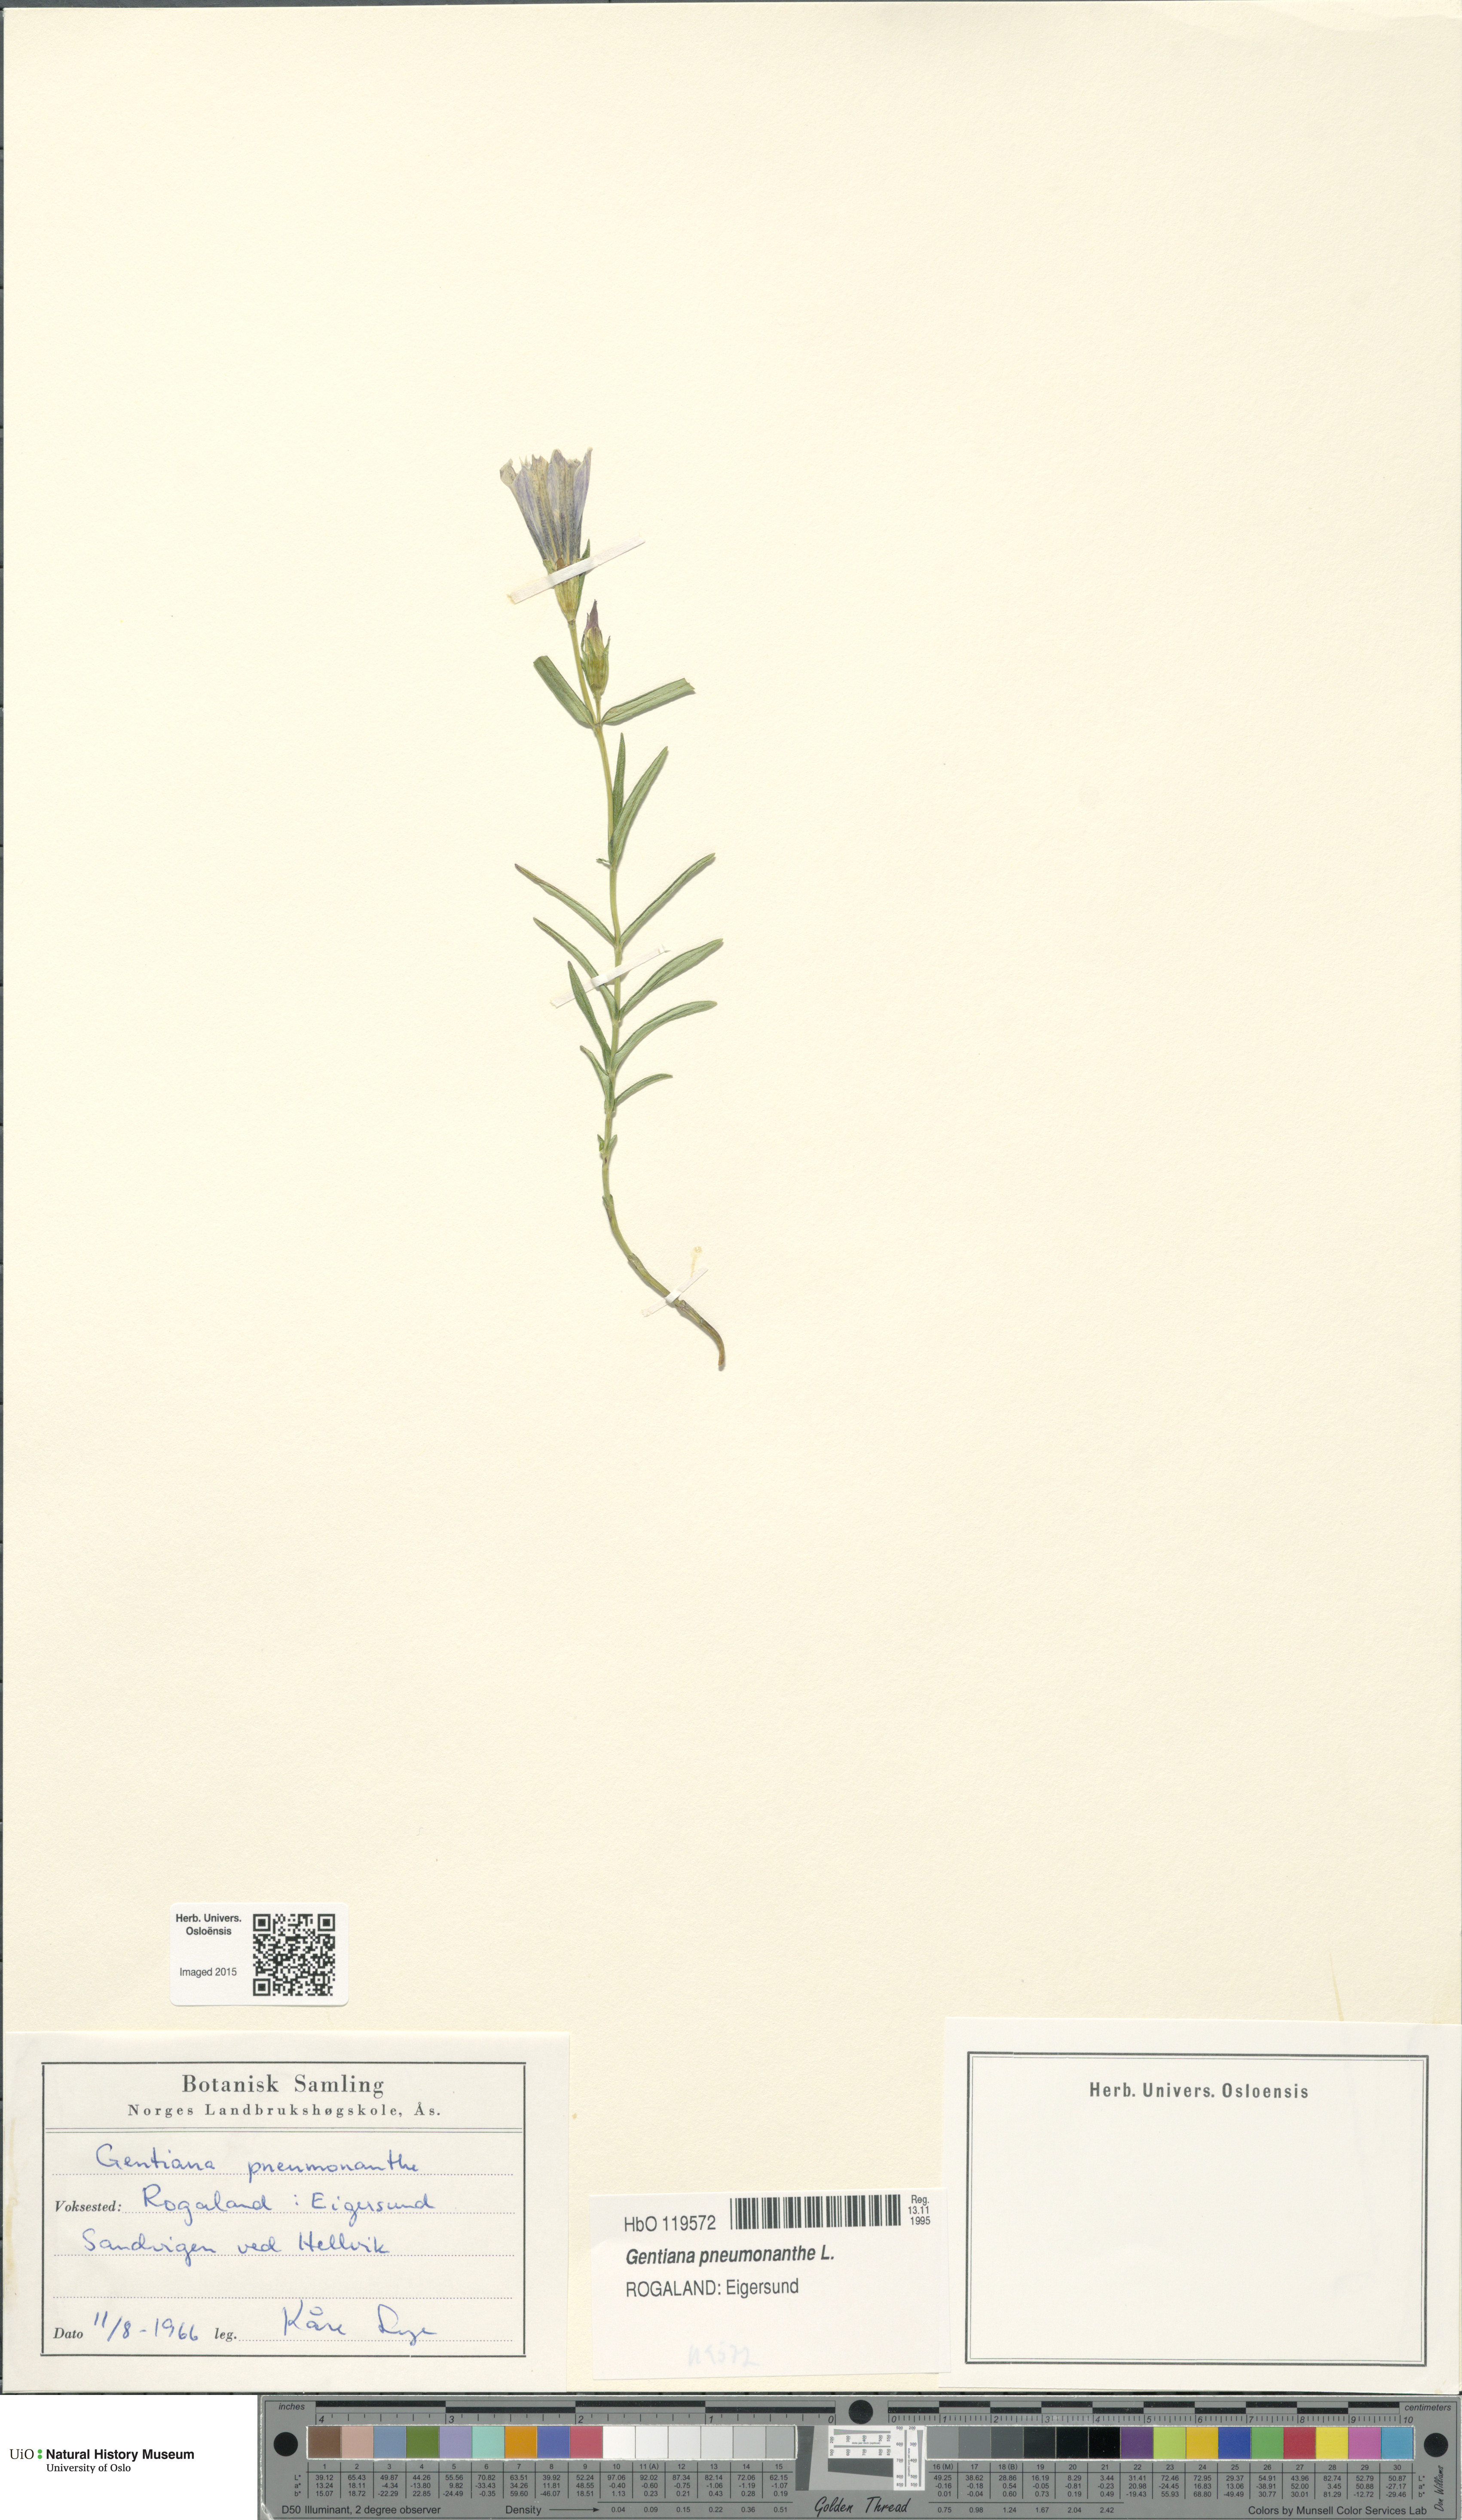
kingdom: Plantae
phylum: Tracheophyta
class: Magnoliopsida
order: Gentianales
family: Gentianaceae
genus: Gentiana
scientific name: Gentiana pneumonanthe
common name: Marsh gentian
